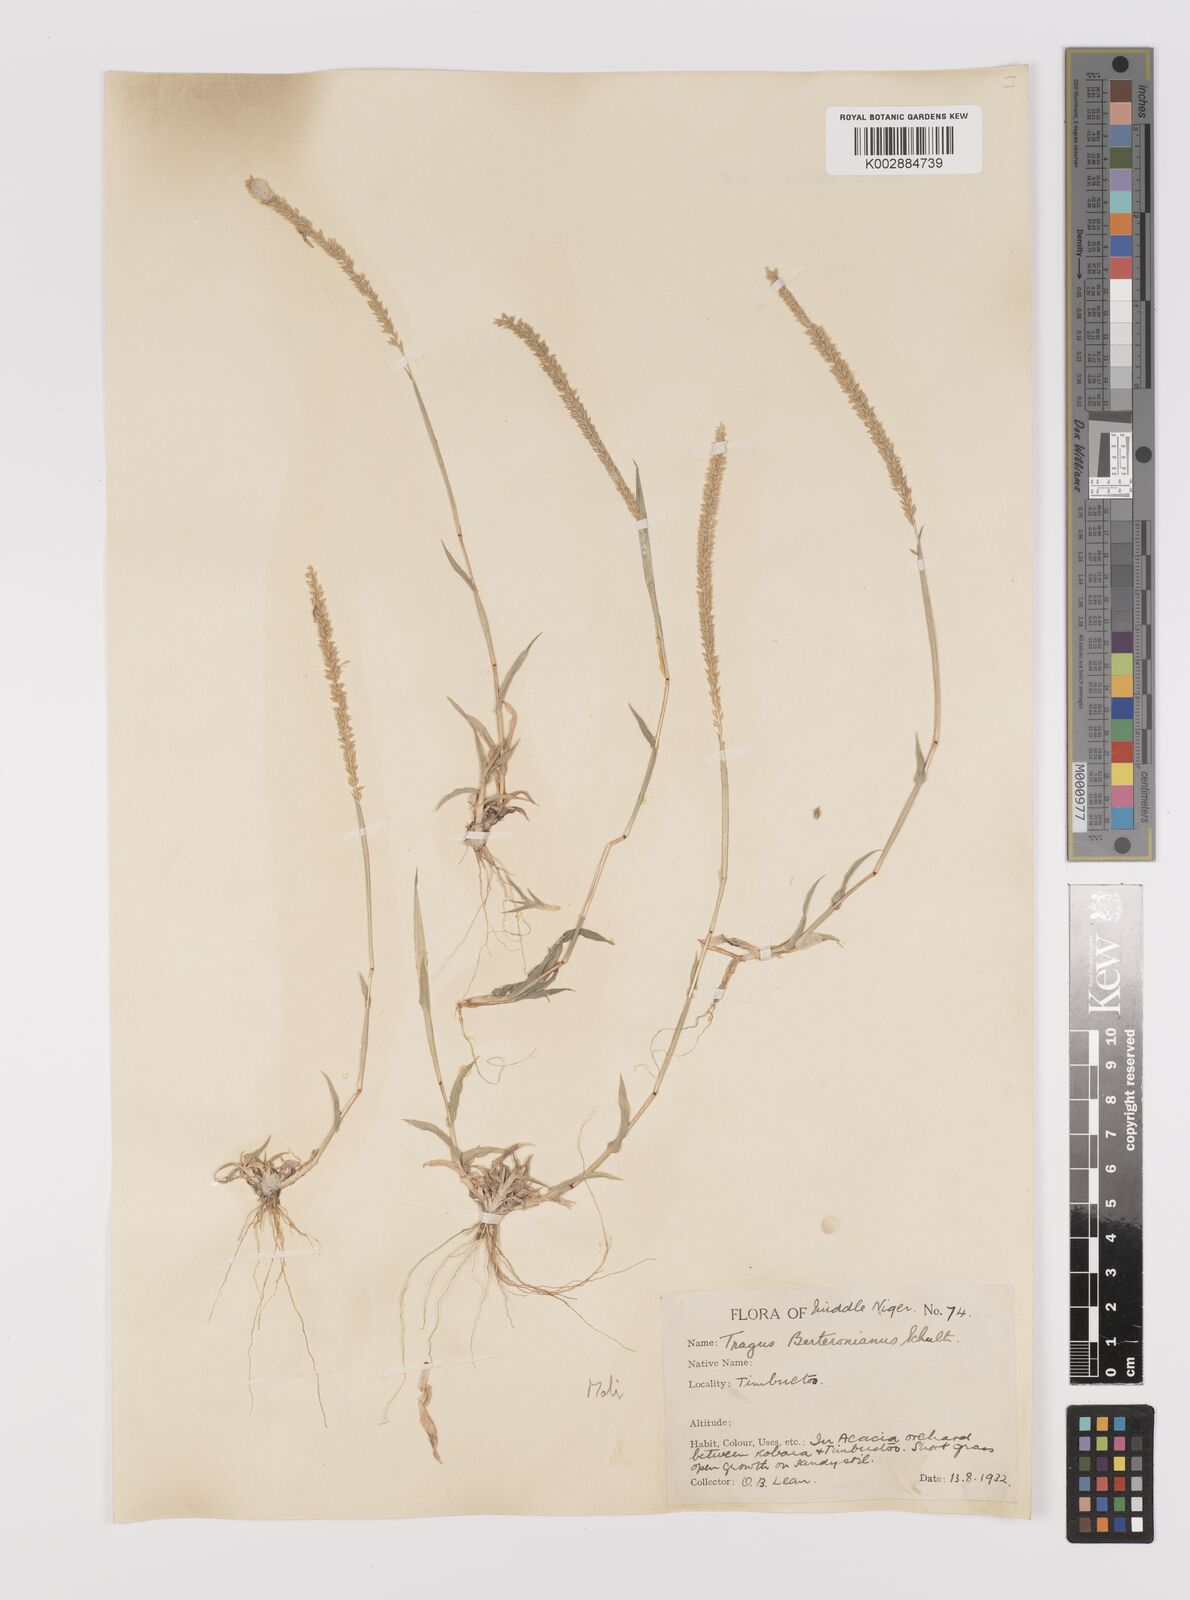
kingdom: Plantae
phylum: Tracheophyta
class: Liliopsida
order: Poales
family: Poaceae
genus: Tragus
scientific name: Tragus berteronianus
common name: African bur-grass
